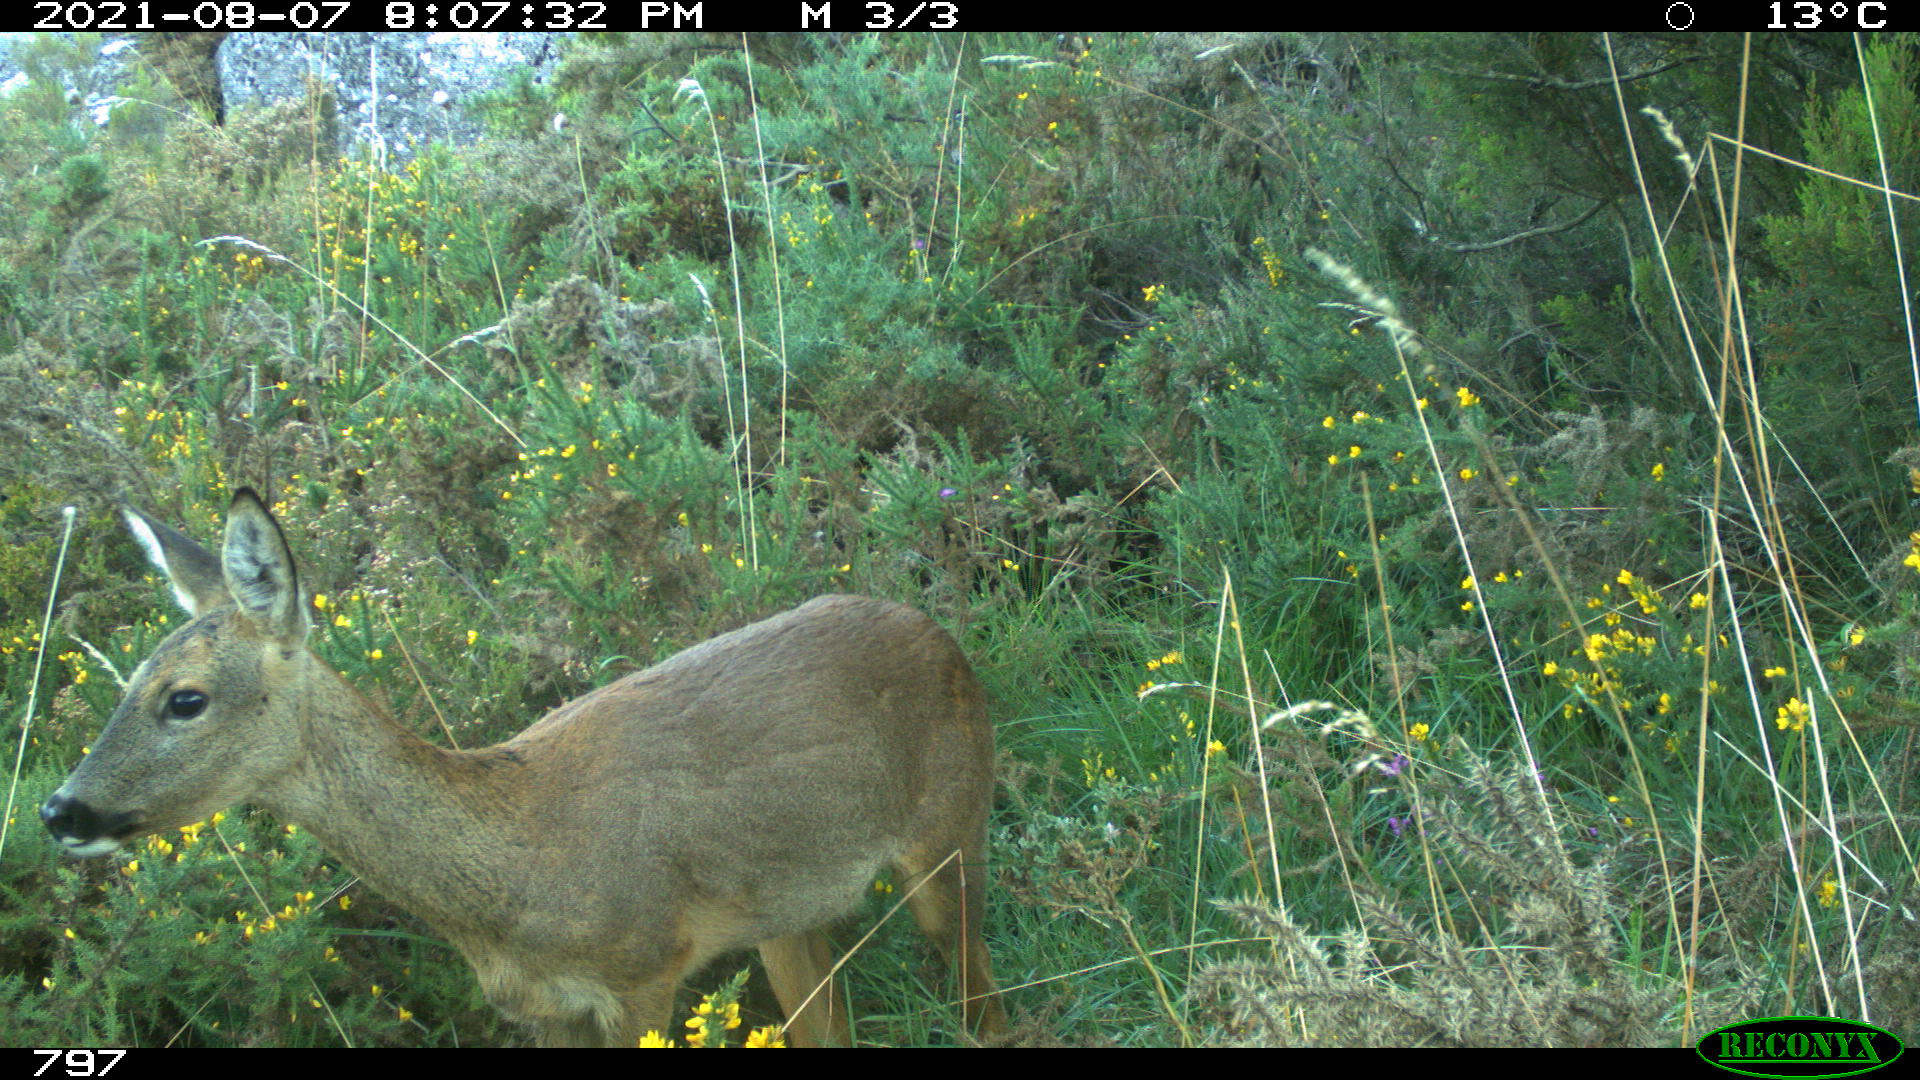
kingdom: Animalia
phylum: Chordata
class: Mammalia
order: Artiodactyla
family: Cervidae
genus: Capreolus
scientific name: Capreolus capreolus
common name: Western roe deer
